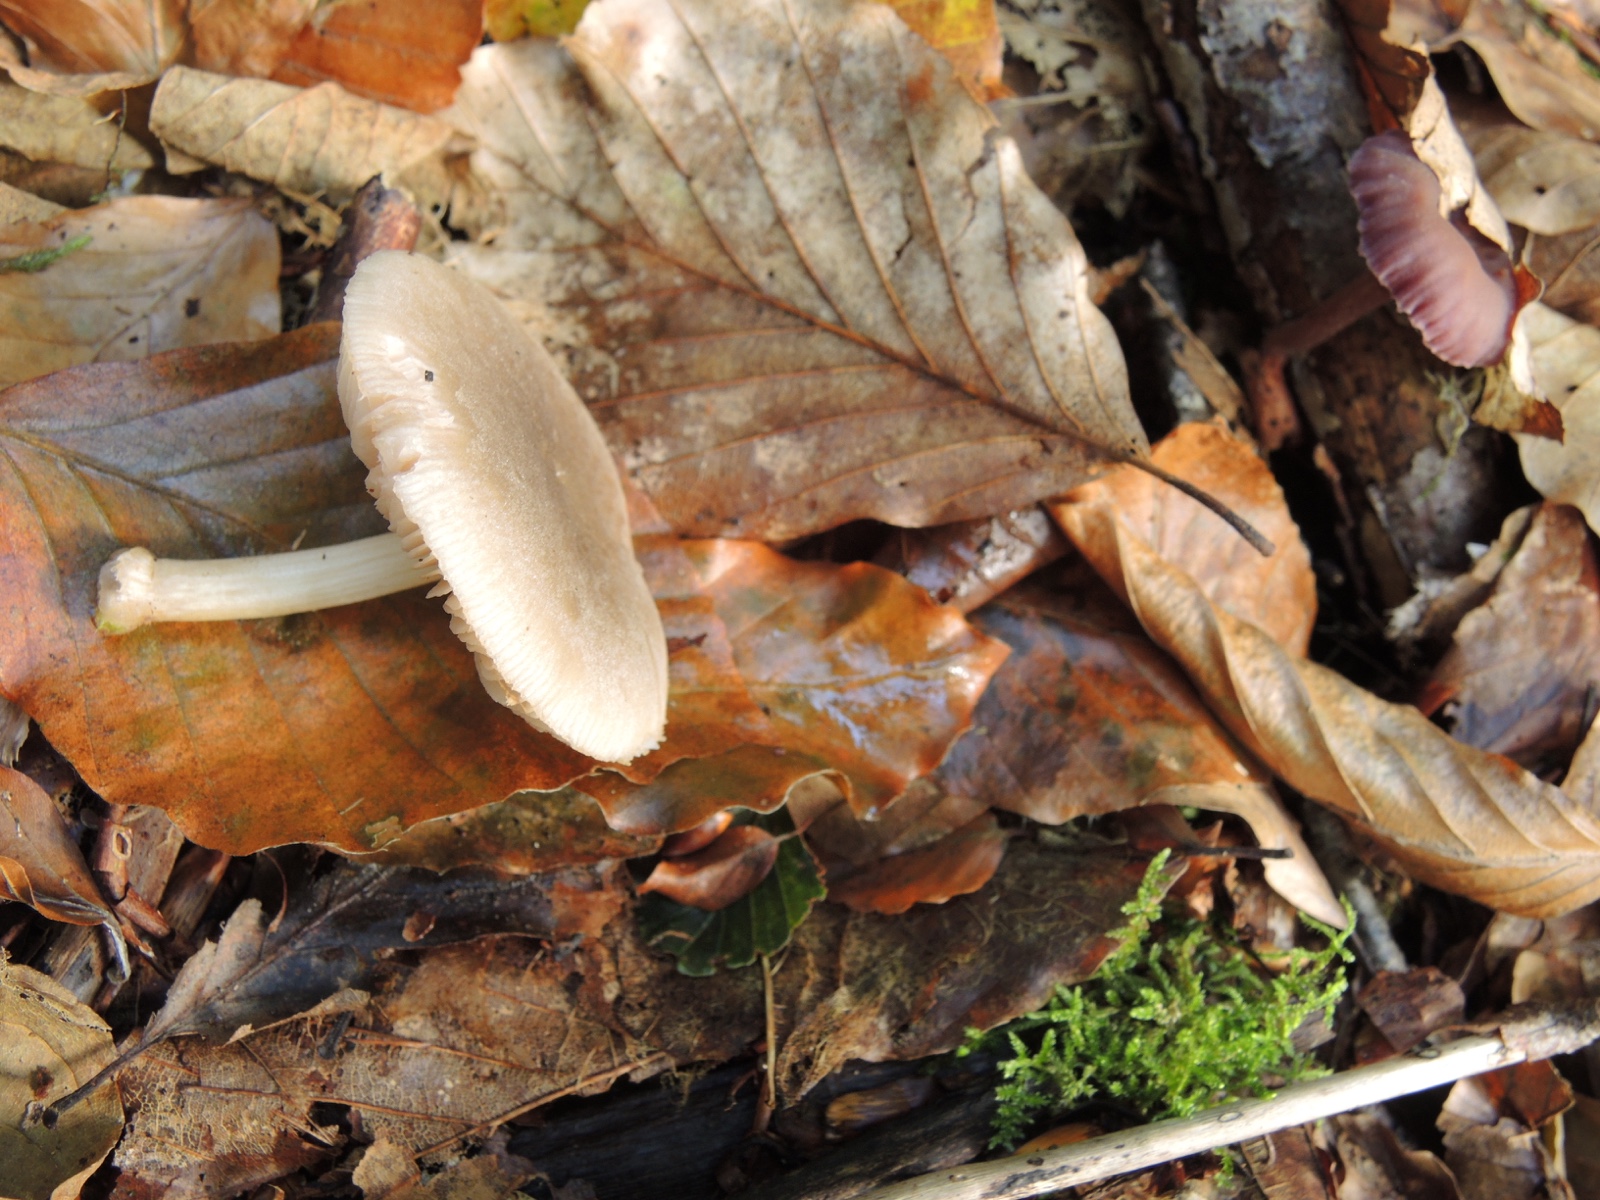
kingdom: Fungi
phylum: Basidiomycota
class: Agaricomycetes
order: Agaricales
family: Pluteaceae
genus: Pluteus
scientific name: Pluteus semibulbosus
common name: knoldet skærmhat
